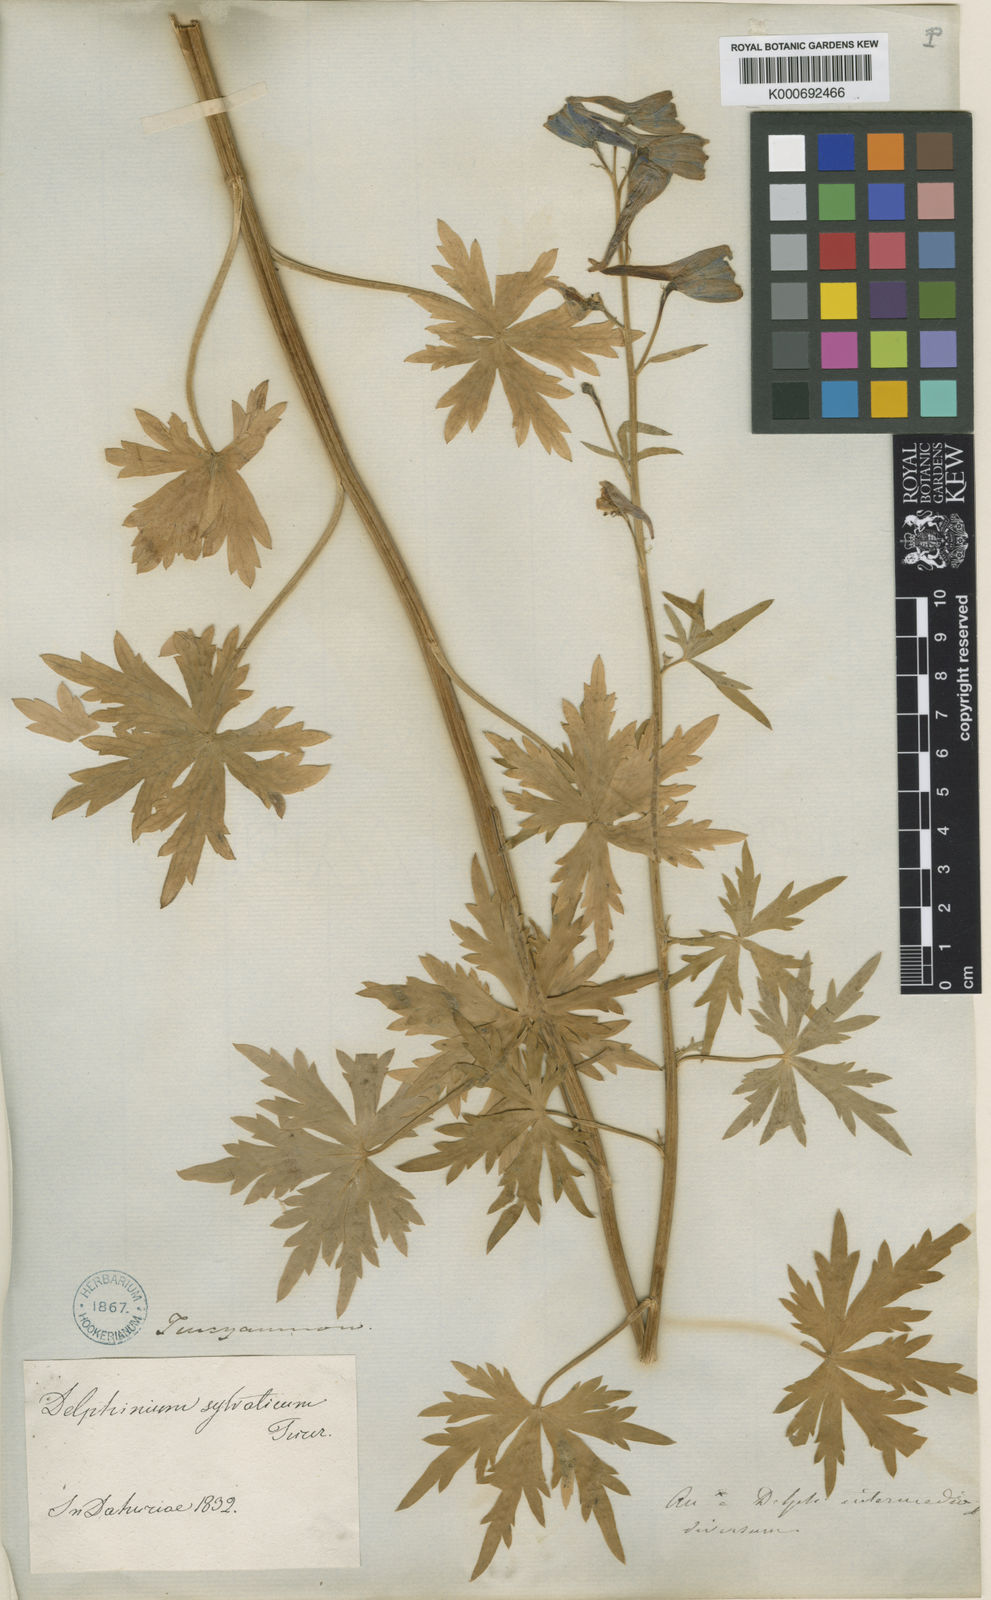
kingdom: Plantae
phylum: Tracheophyta
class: Magnoliopsida
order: Ranunculales
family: Ranunculaceae
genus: Delphinium
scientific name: Delphinium elatum
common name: Candle larkspur
